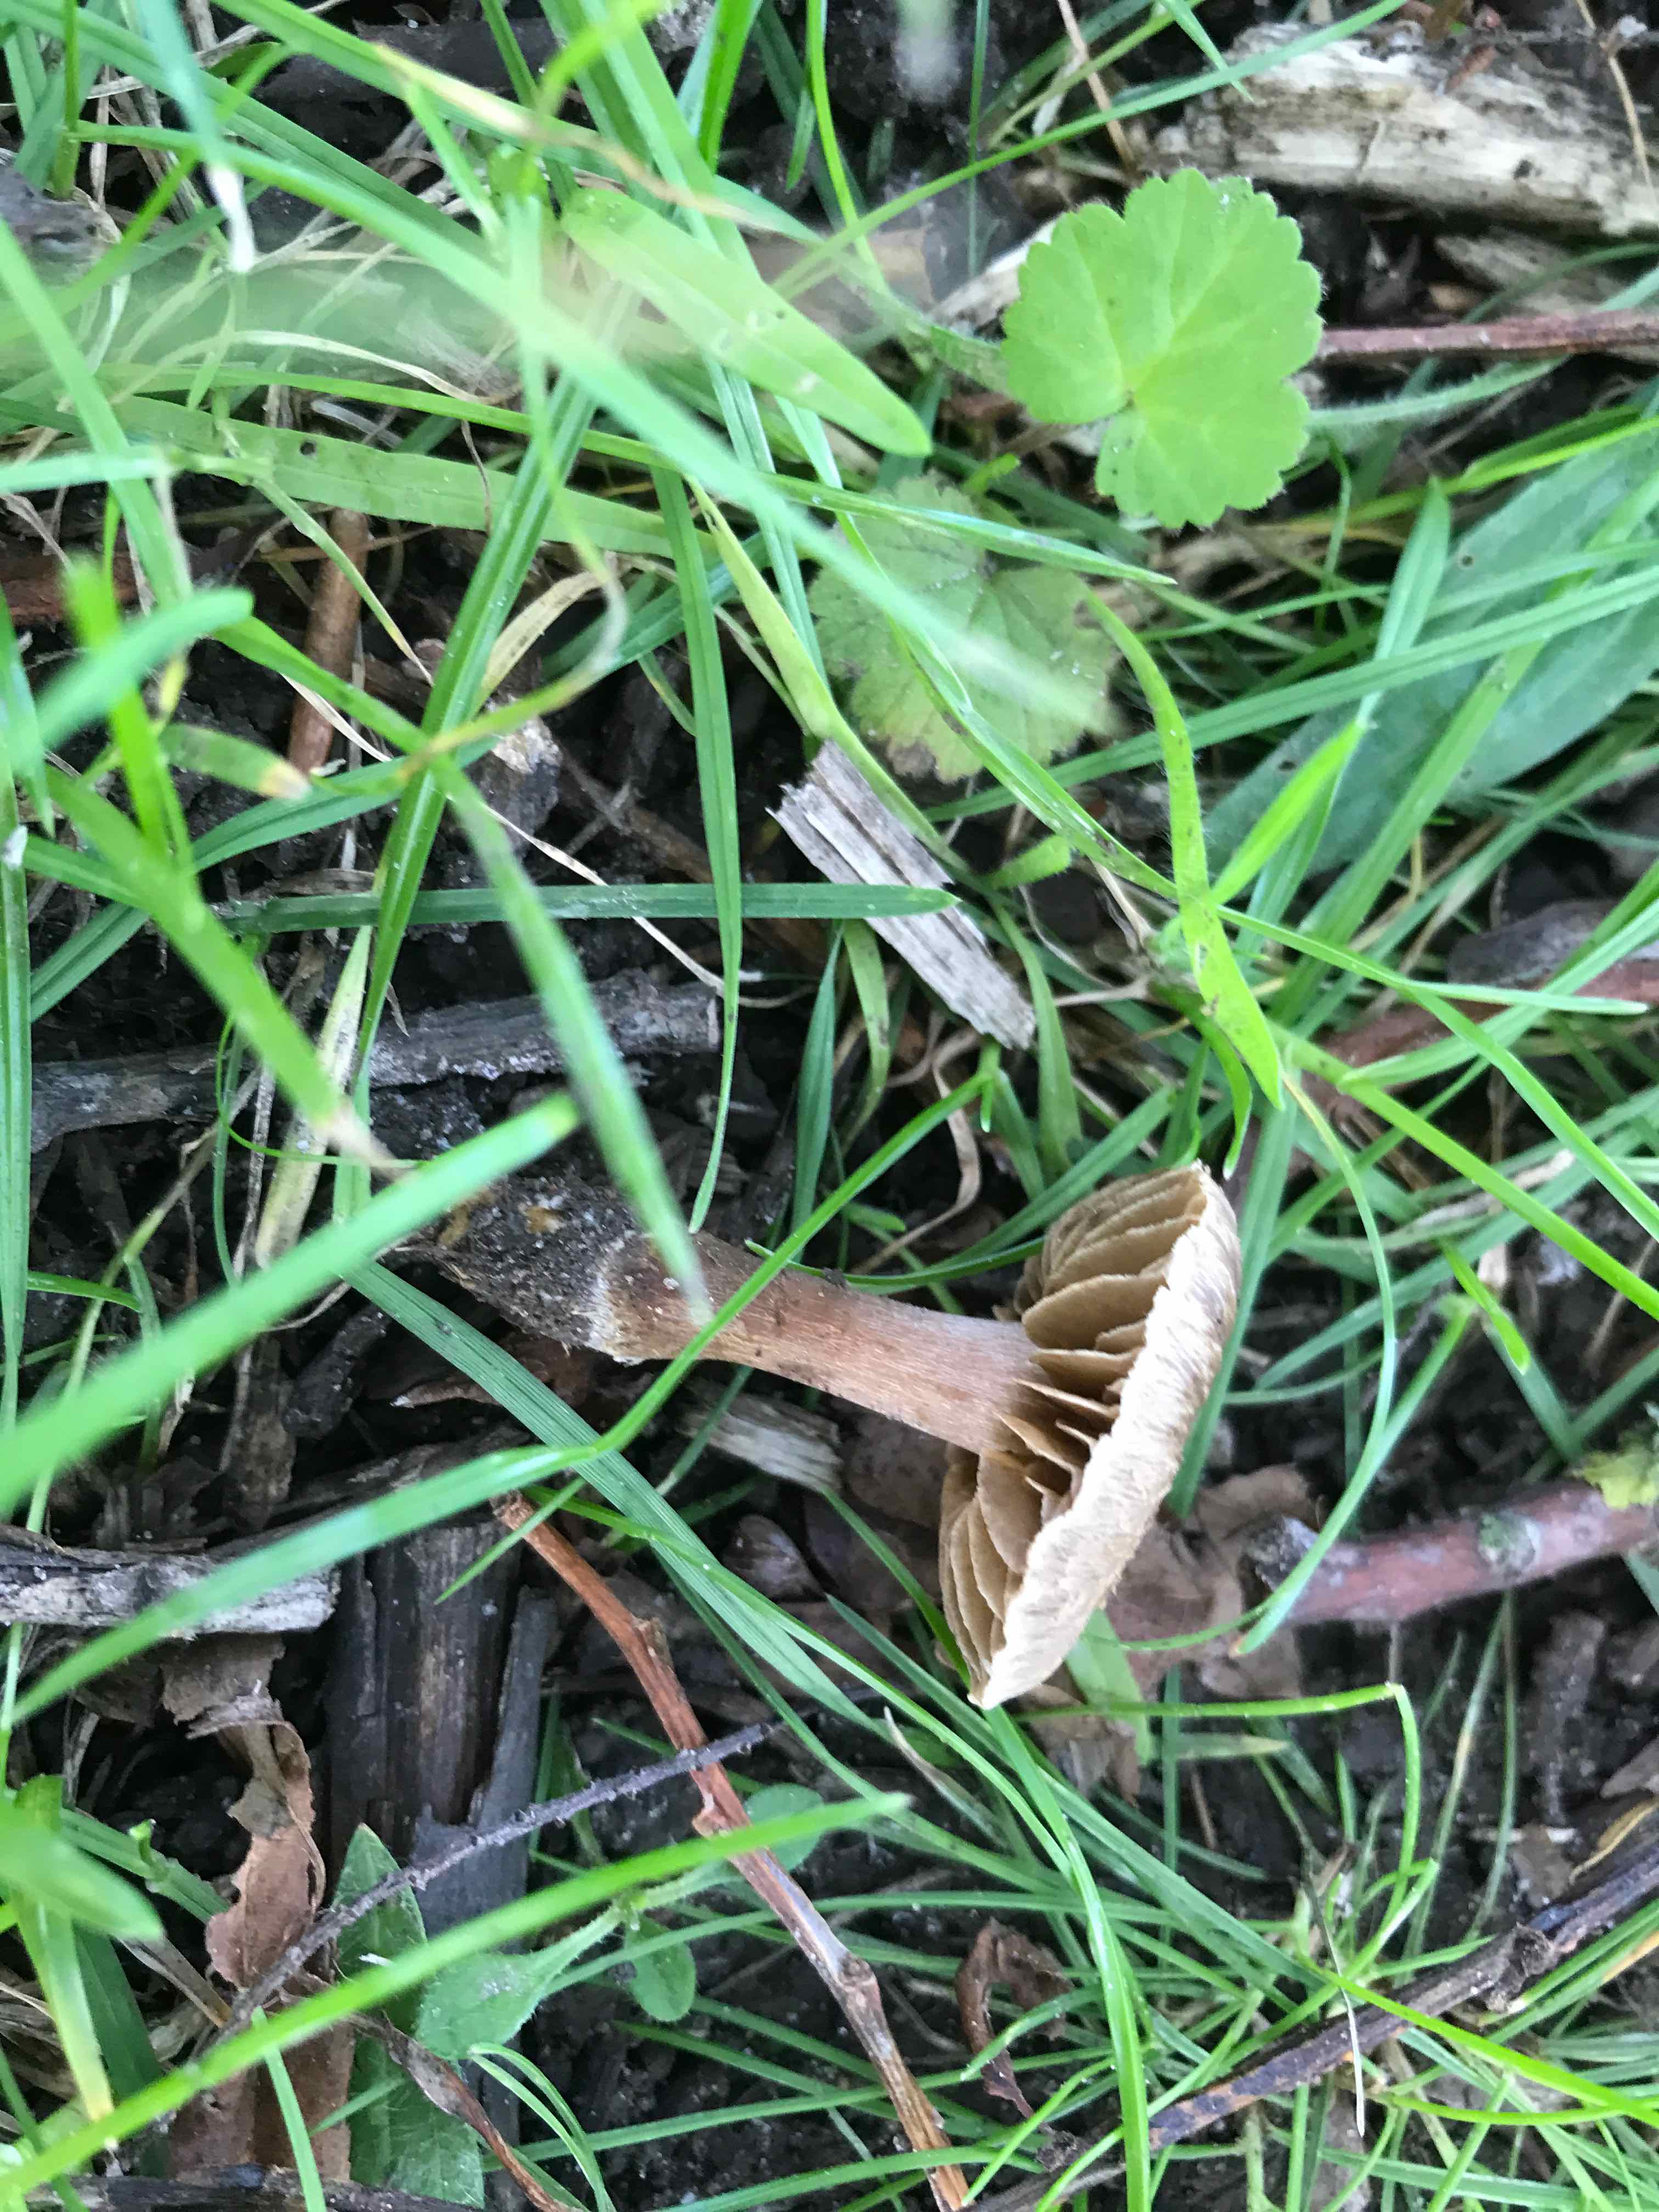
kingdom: Fungi
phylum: Basidiomycota
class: Agaricomycetes
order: Agaricales
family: Cortinariaceae
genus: Cortinarius
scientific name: Cortinarius
